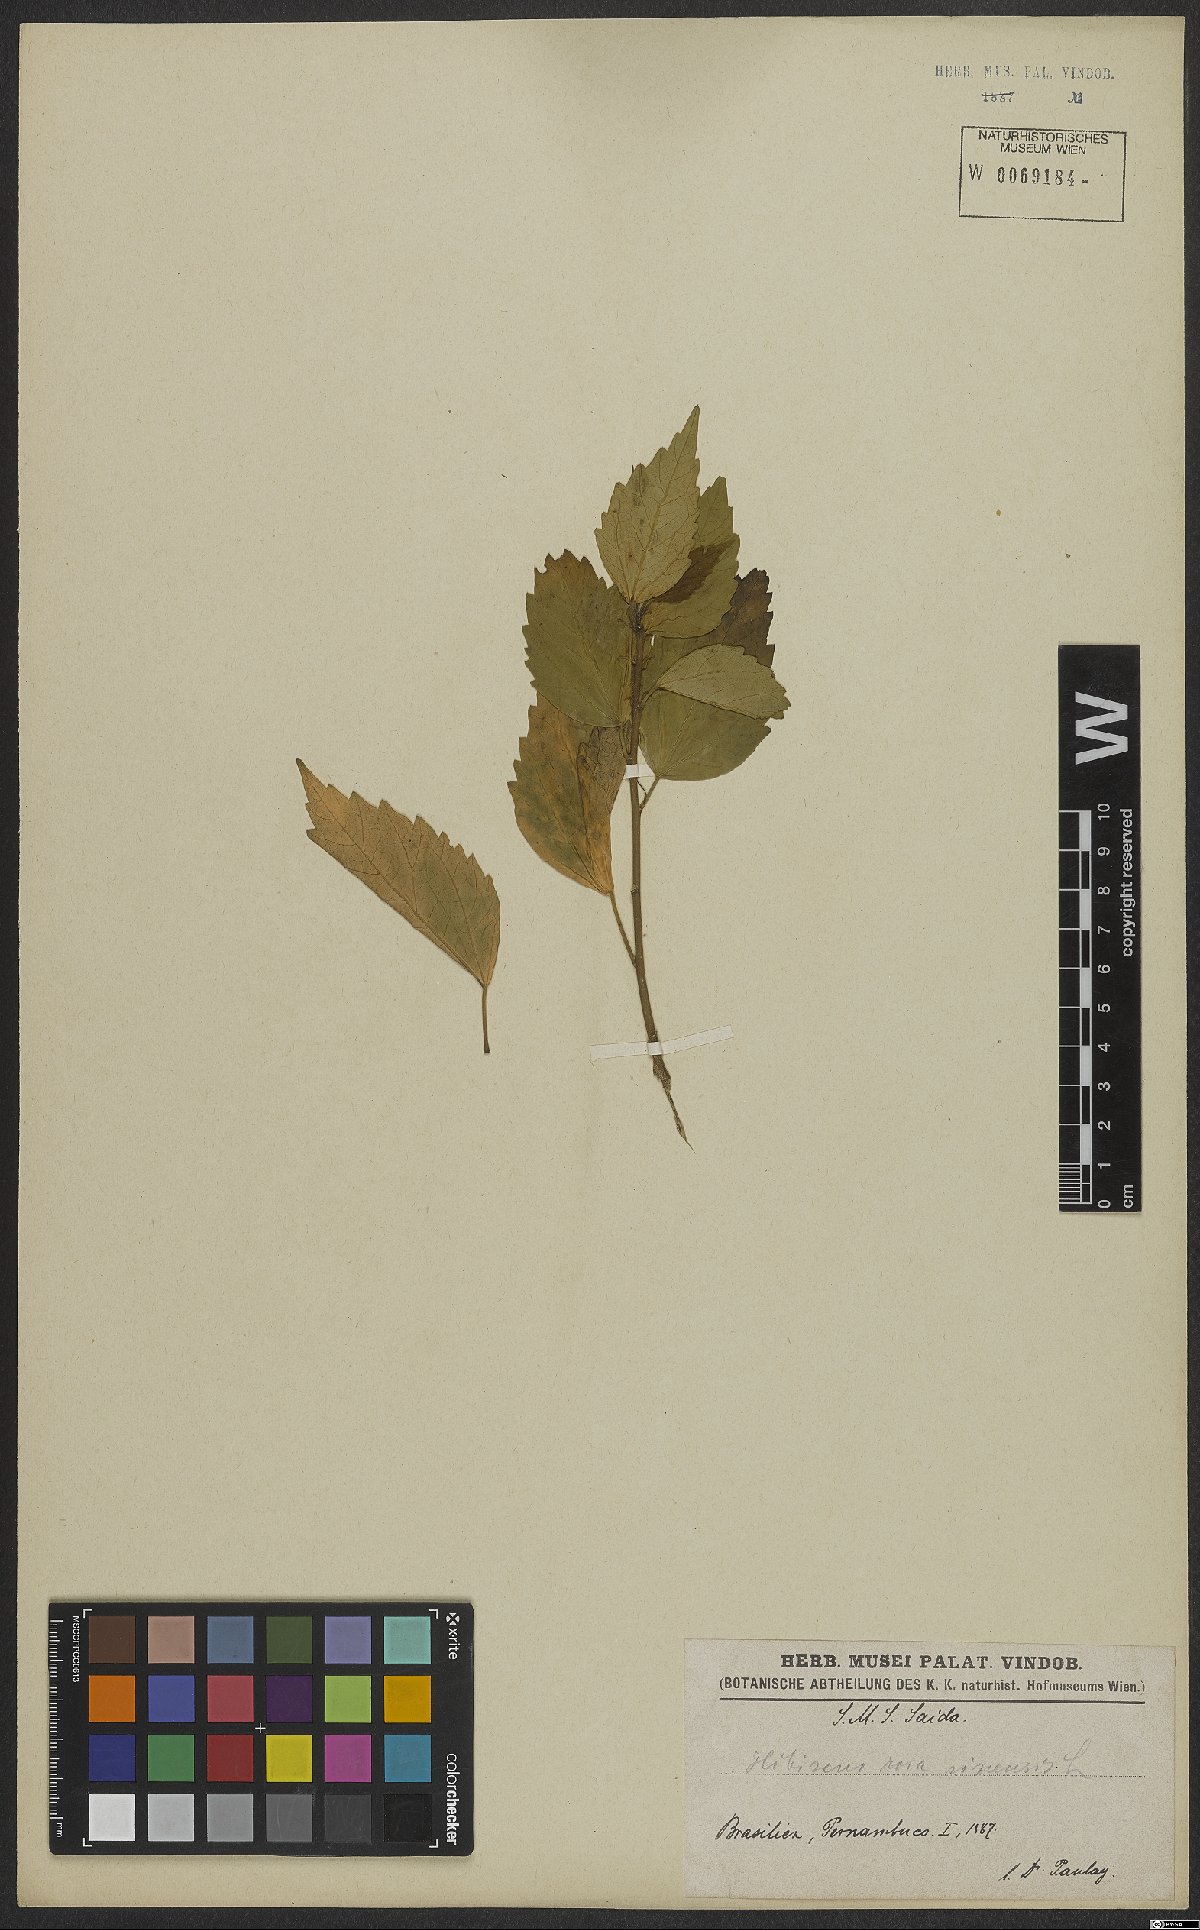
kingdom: Plantae
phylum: Tracheophyta
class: Magnoliopsida
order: Malvales
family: Malvaceae
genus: Hibiscus
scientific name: Hibiscus rosa-sinensis
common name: Hibiscus
